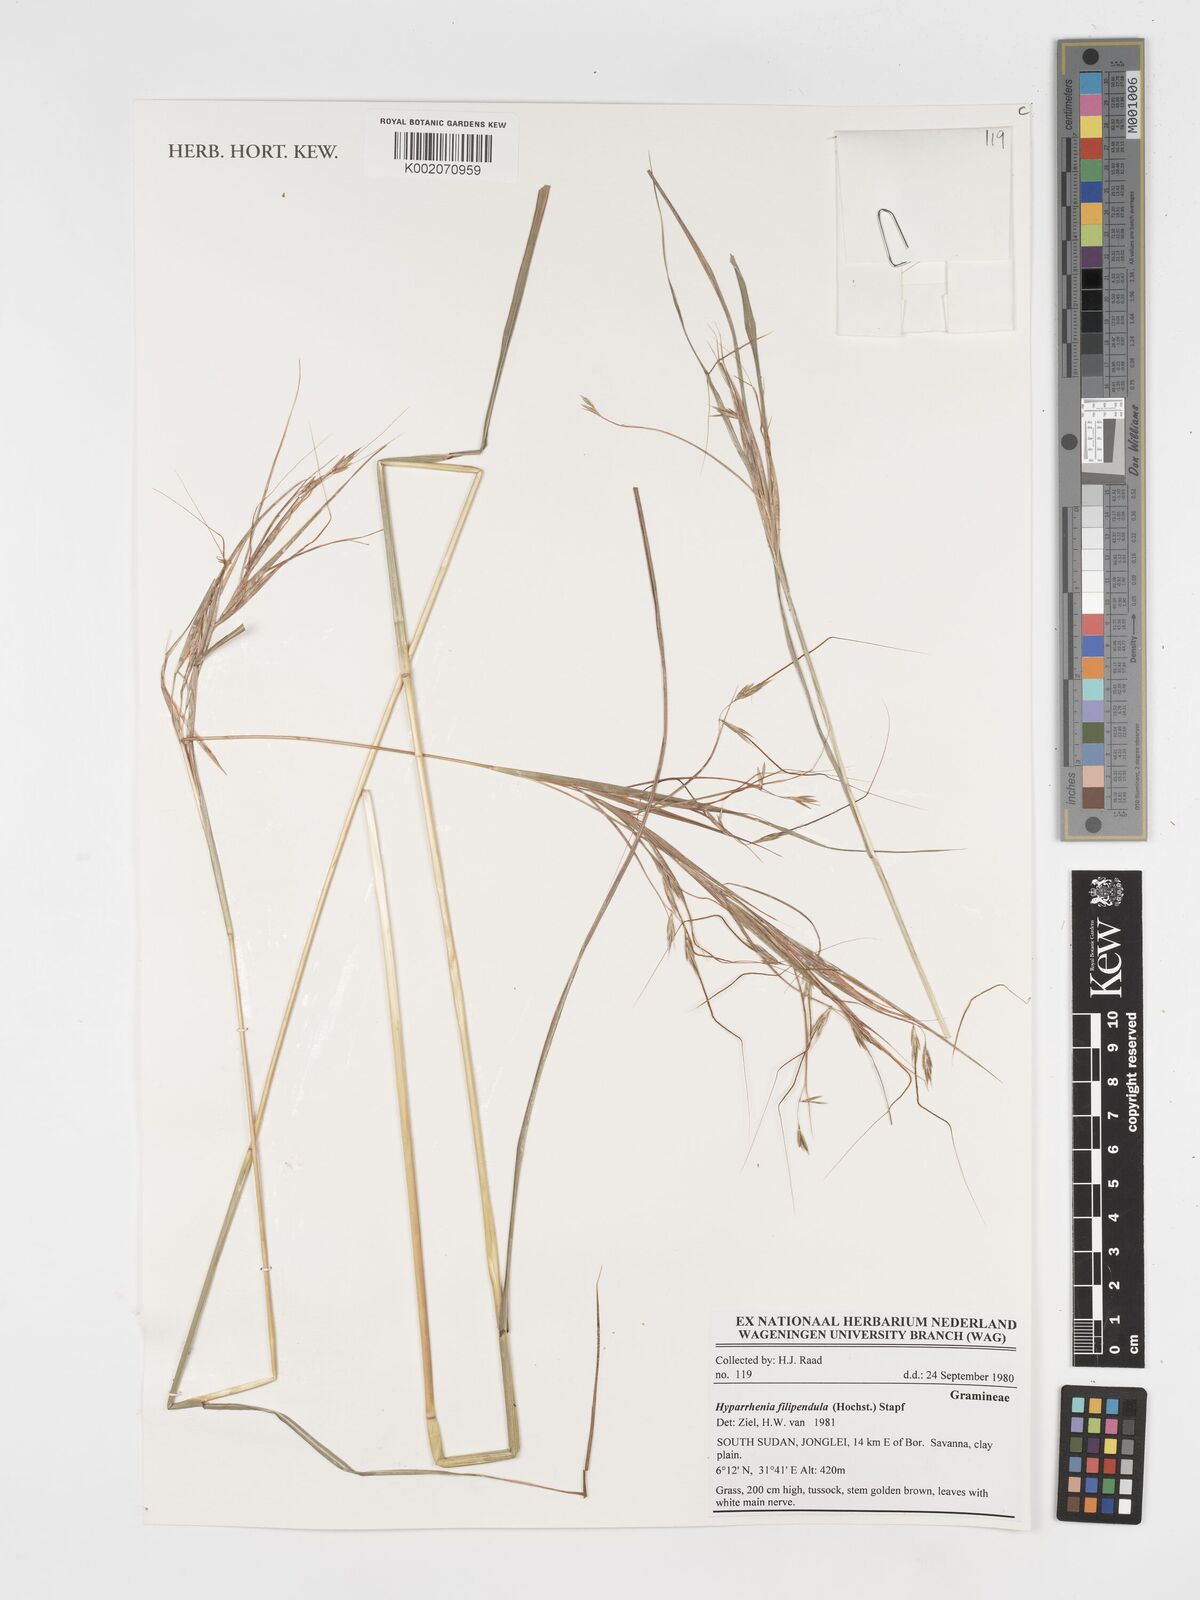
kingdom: Plantae
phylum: Tracheophyta
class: Liliopsida
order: Poales
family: Poaceae
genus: Hyparrhenia
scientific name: Hyparrhenia filipendula
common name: Tambookie grass
